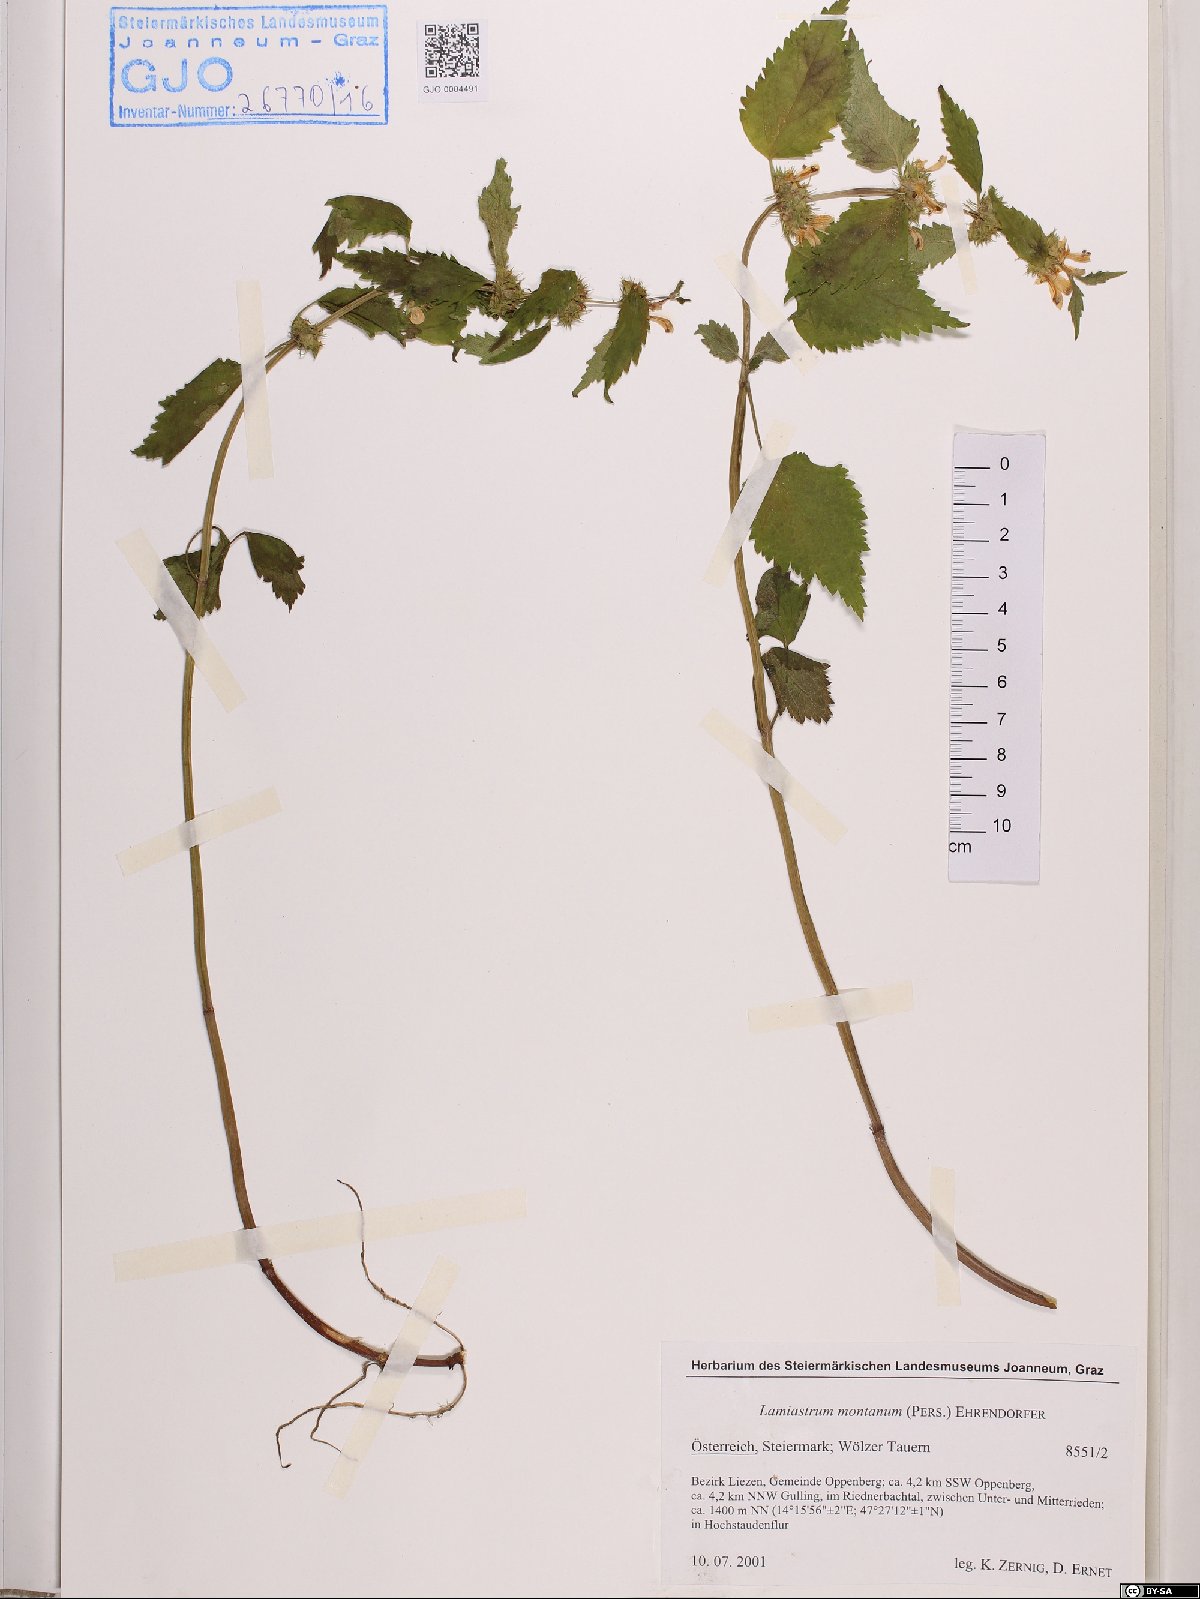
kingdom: Plantae
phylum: Tracheophyta
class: Magnoliopsida
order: Lamiales
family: Lamiaceae
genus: Lamium
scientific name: Lamium galeobdolon
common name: Yellow archangel
